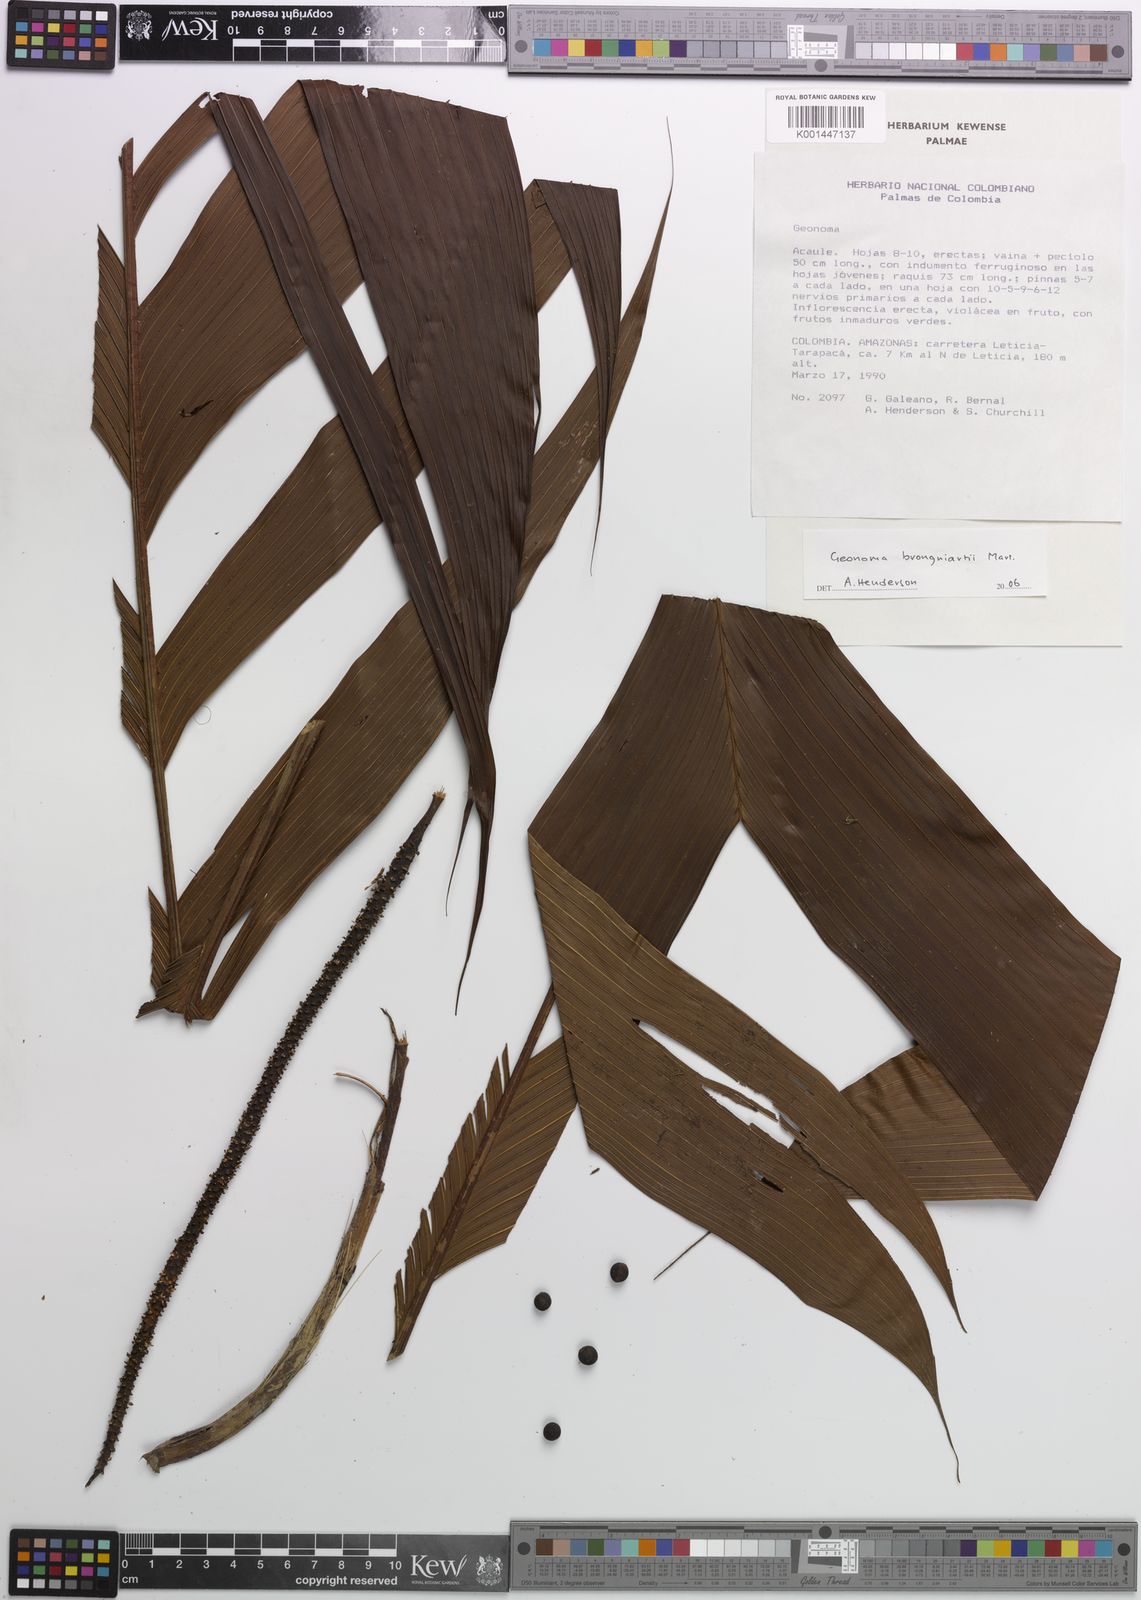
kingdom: Plantae
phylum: Tracheophyta
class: Liliopsida
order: Arecales
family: Arecaceae
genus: Geonoma
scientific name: Geonoma brongniartii
